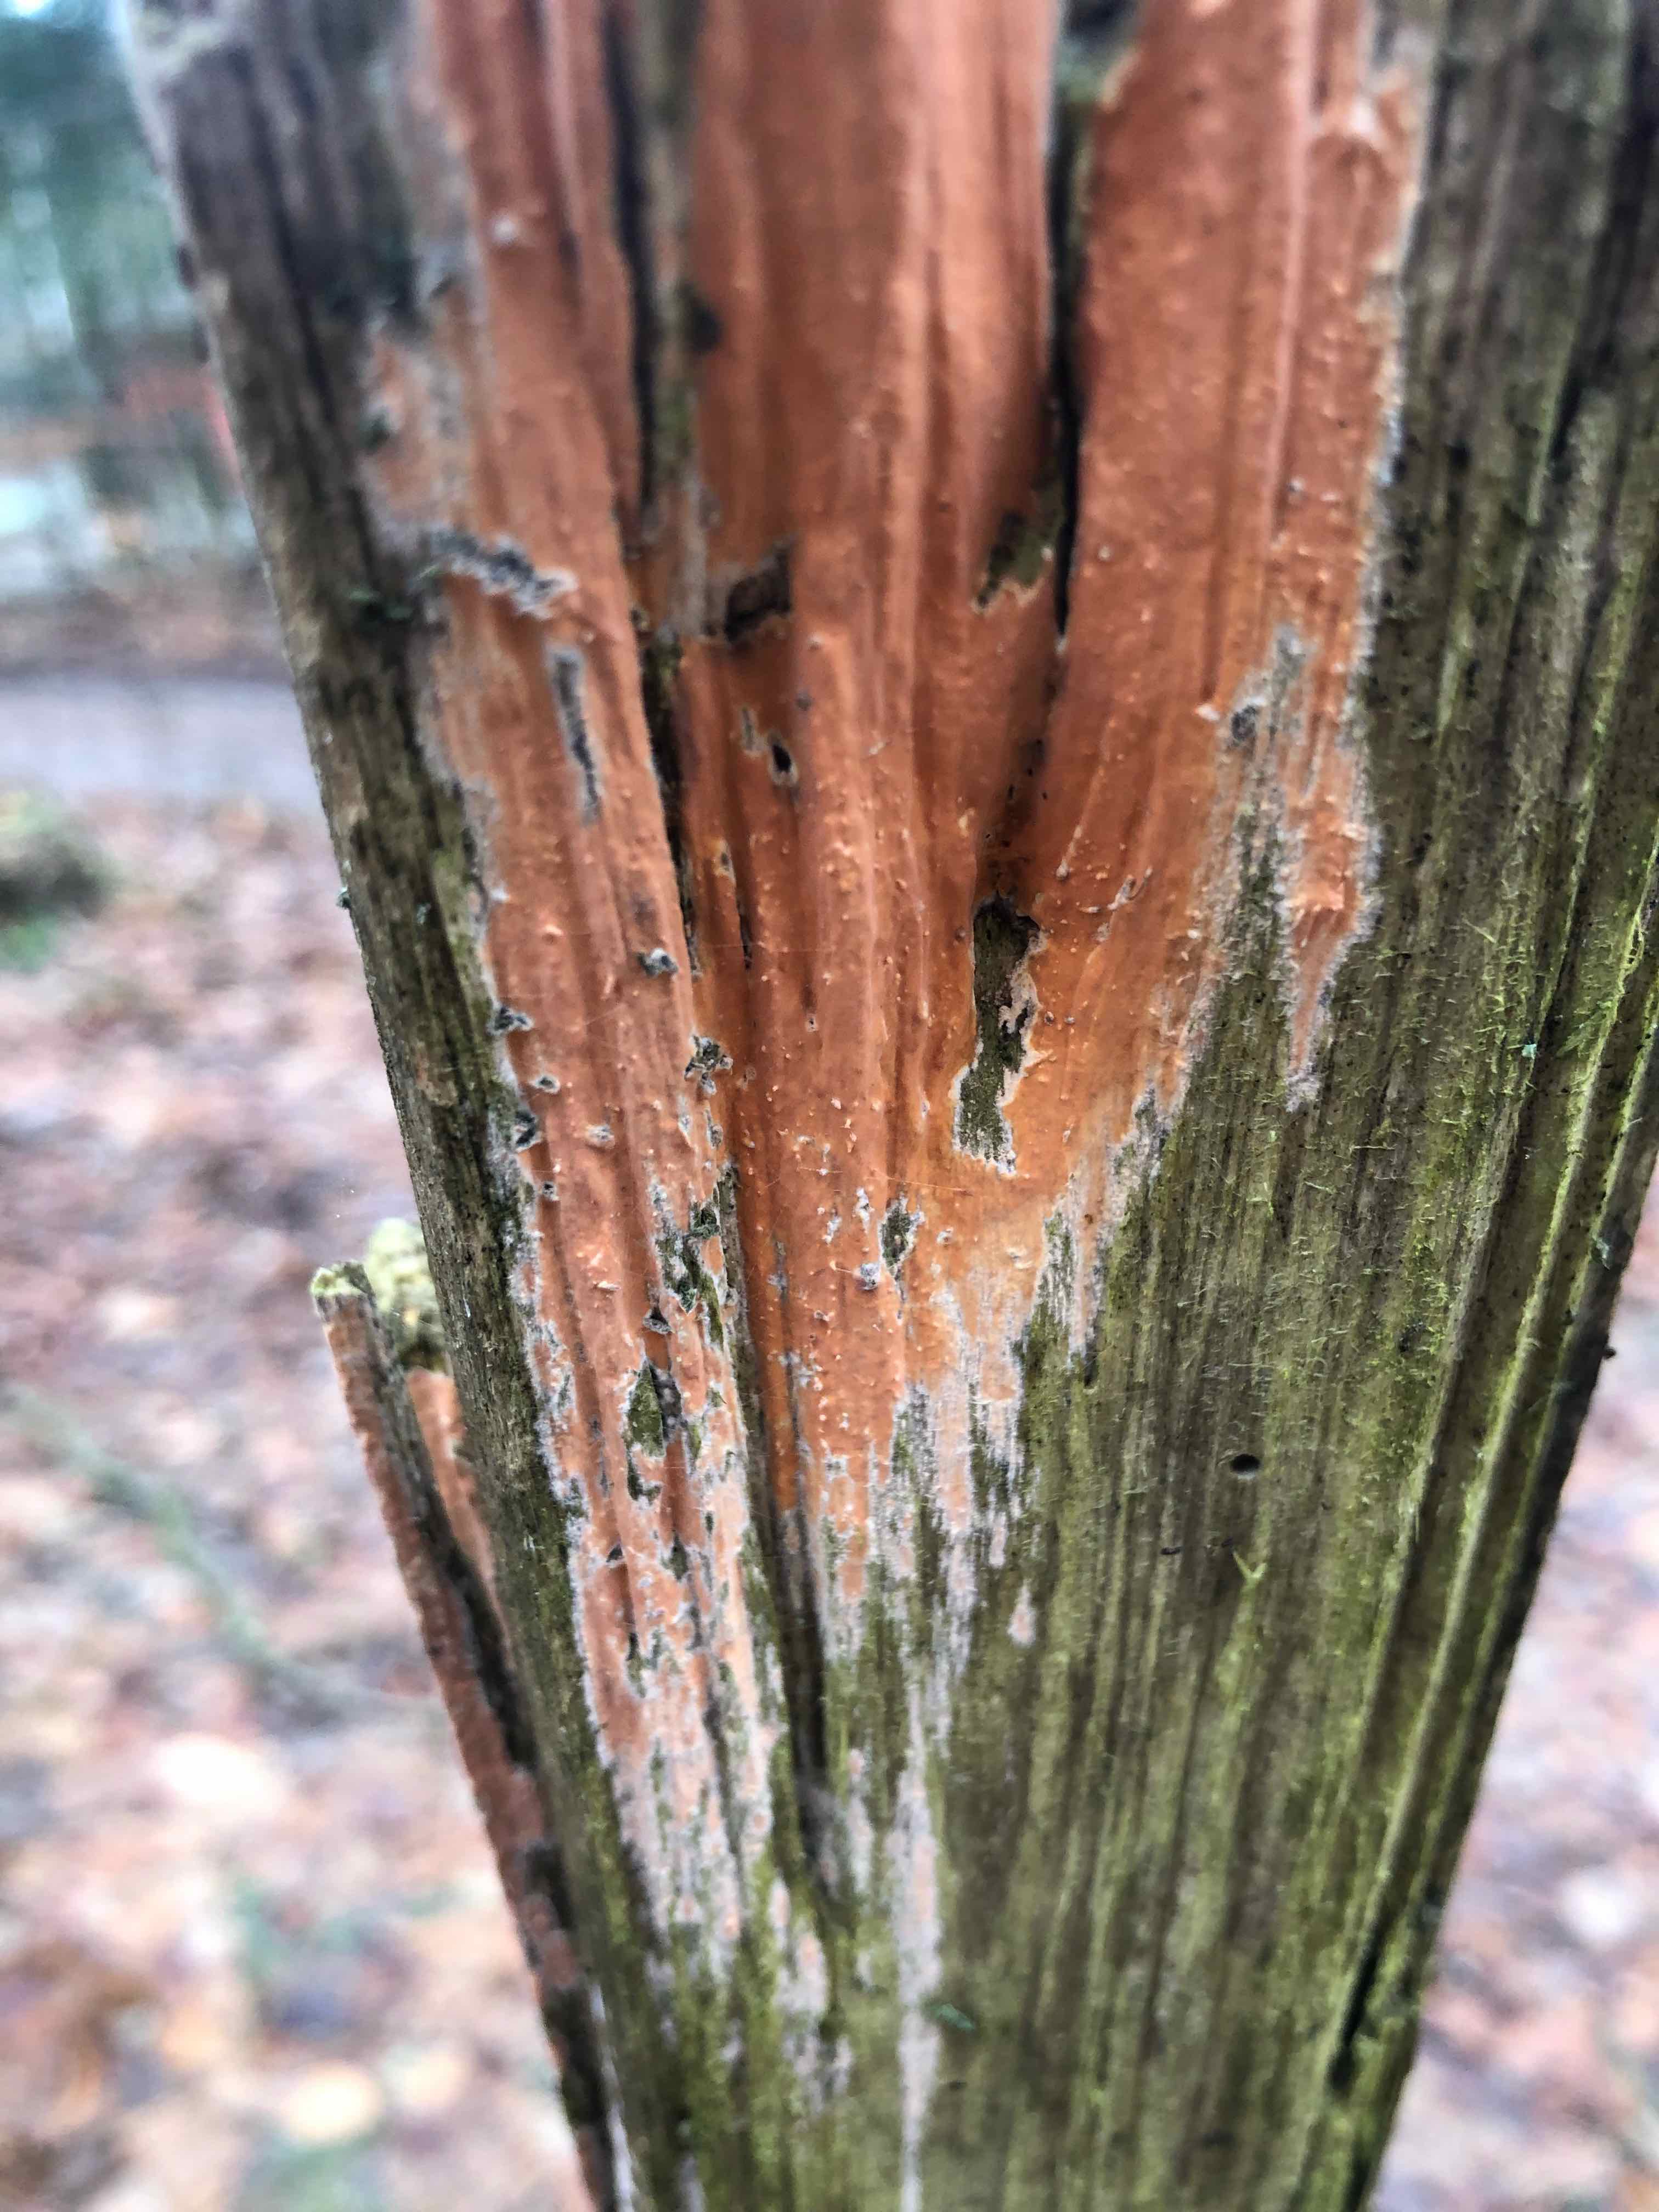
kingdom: Fungi
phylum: Basidiomycota
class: Agaricomycetes
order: Russulales
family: Peniophoraceae
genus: Peniophora
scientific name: Peniophora incarnata
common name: laksefarvet voksskind
